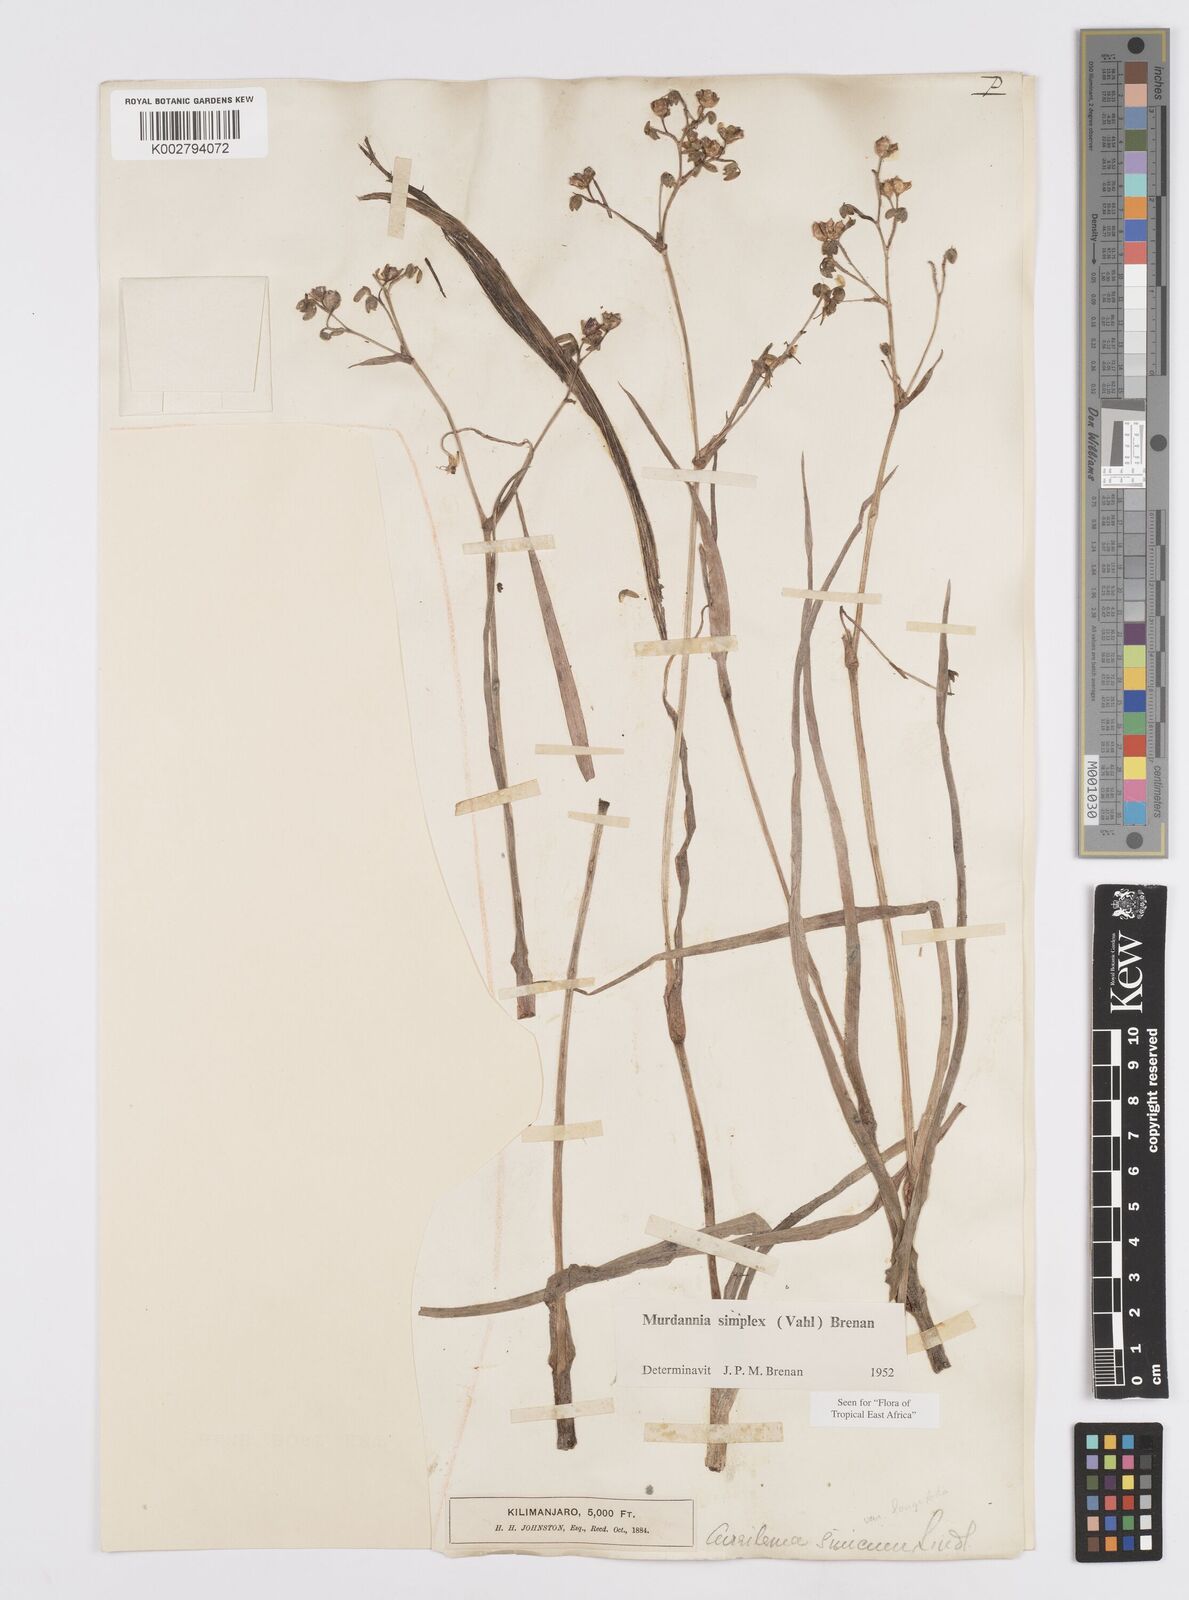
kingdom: Plantae
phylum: Tracheophyta
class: Liliopsida
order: Commelinales
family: Commelinaceae
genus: Murdannia
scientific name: Murdannia simplex
